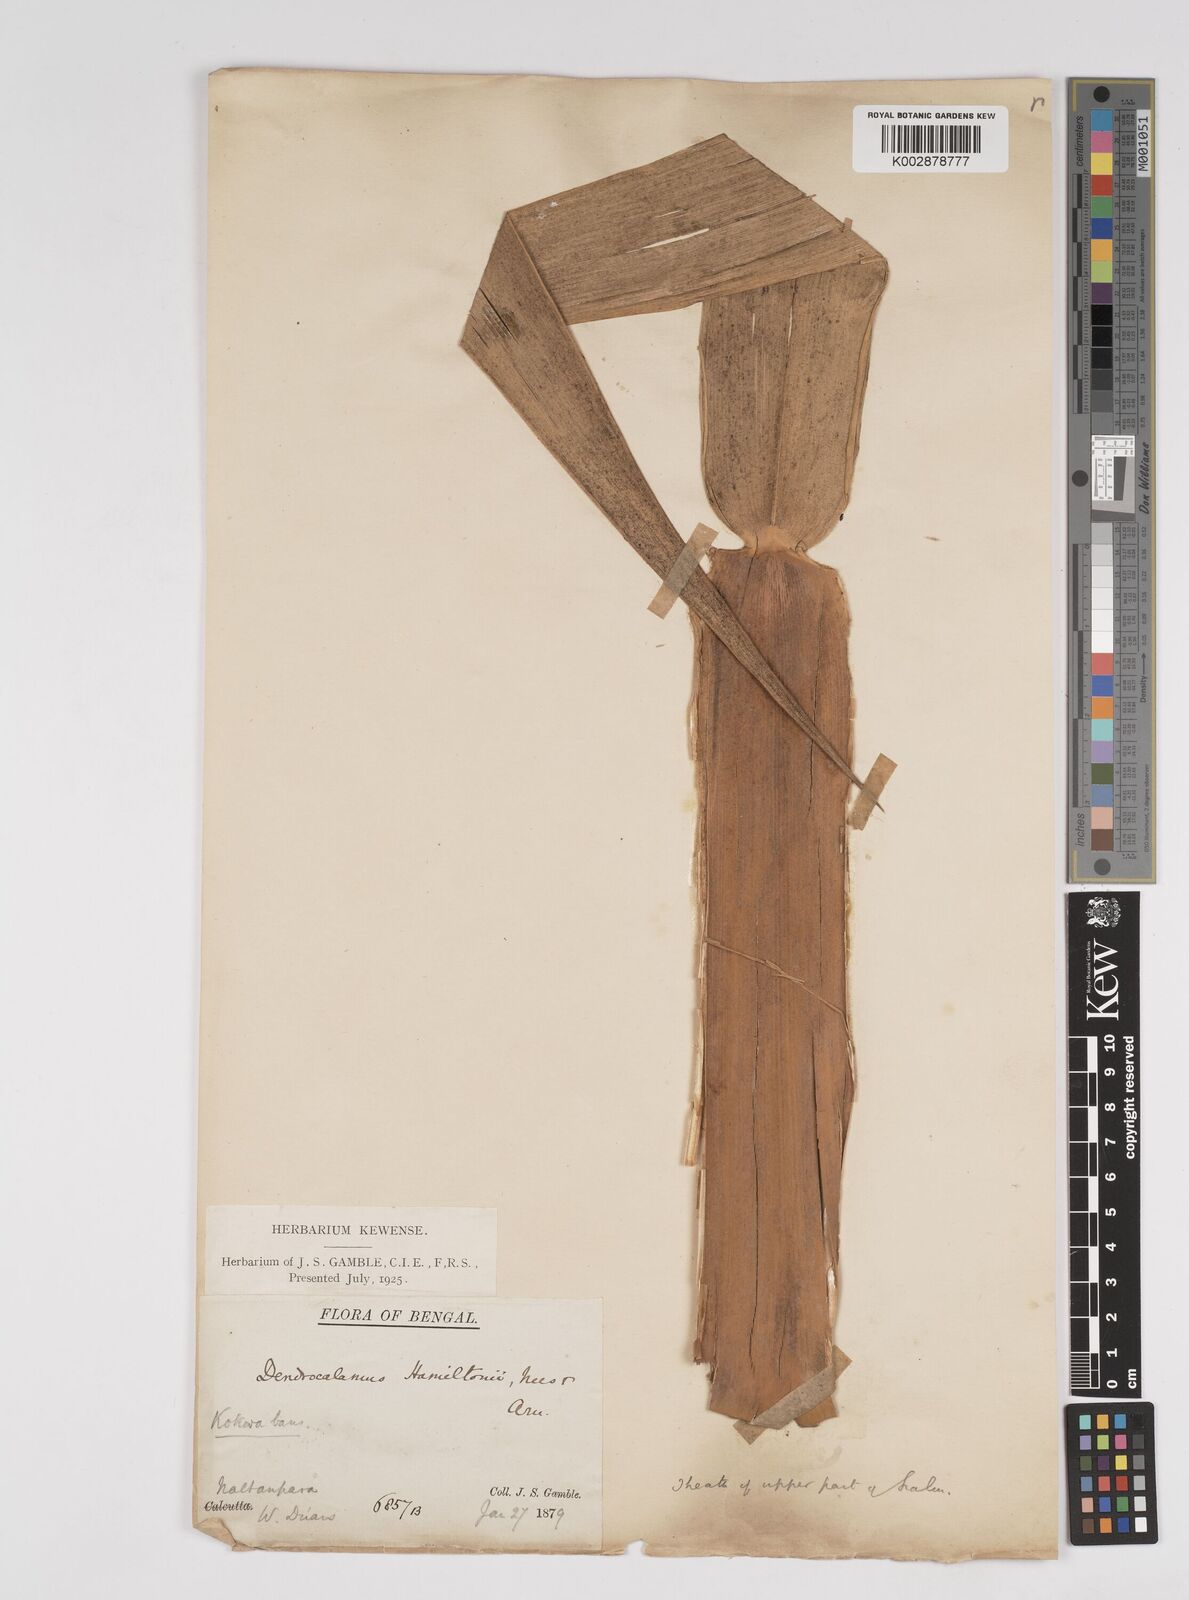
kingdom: Plantae
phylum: Tracheophyta
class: Liliopsida
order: Poales
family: Poaceae
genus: Dendrocalamus
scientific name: Dendrocalamus hamiltonii
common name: Tama bamboo
